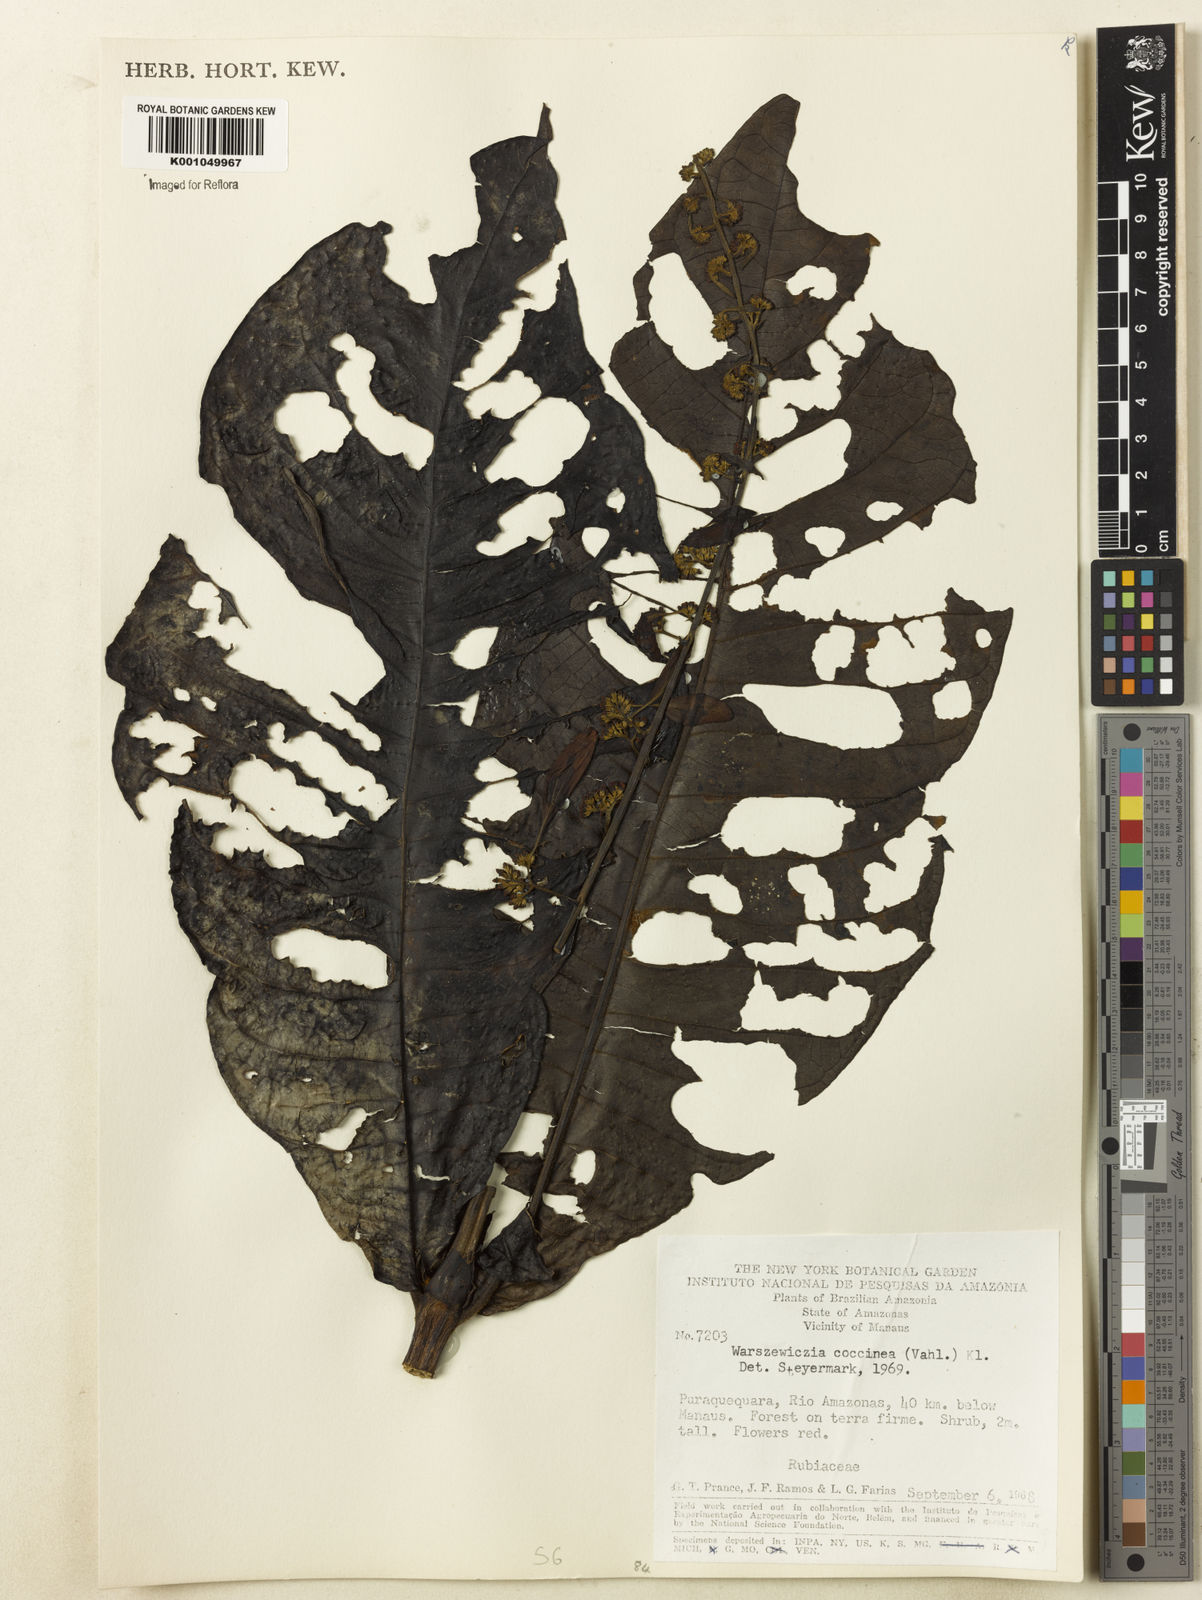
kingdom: Plantae
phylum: Tracheophyta
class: Magnoliopsida
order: Gentianales
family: Rubiaceae
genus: Warszewiczia
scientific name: Warszewiczia coccinea
